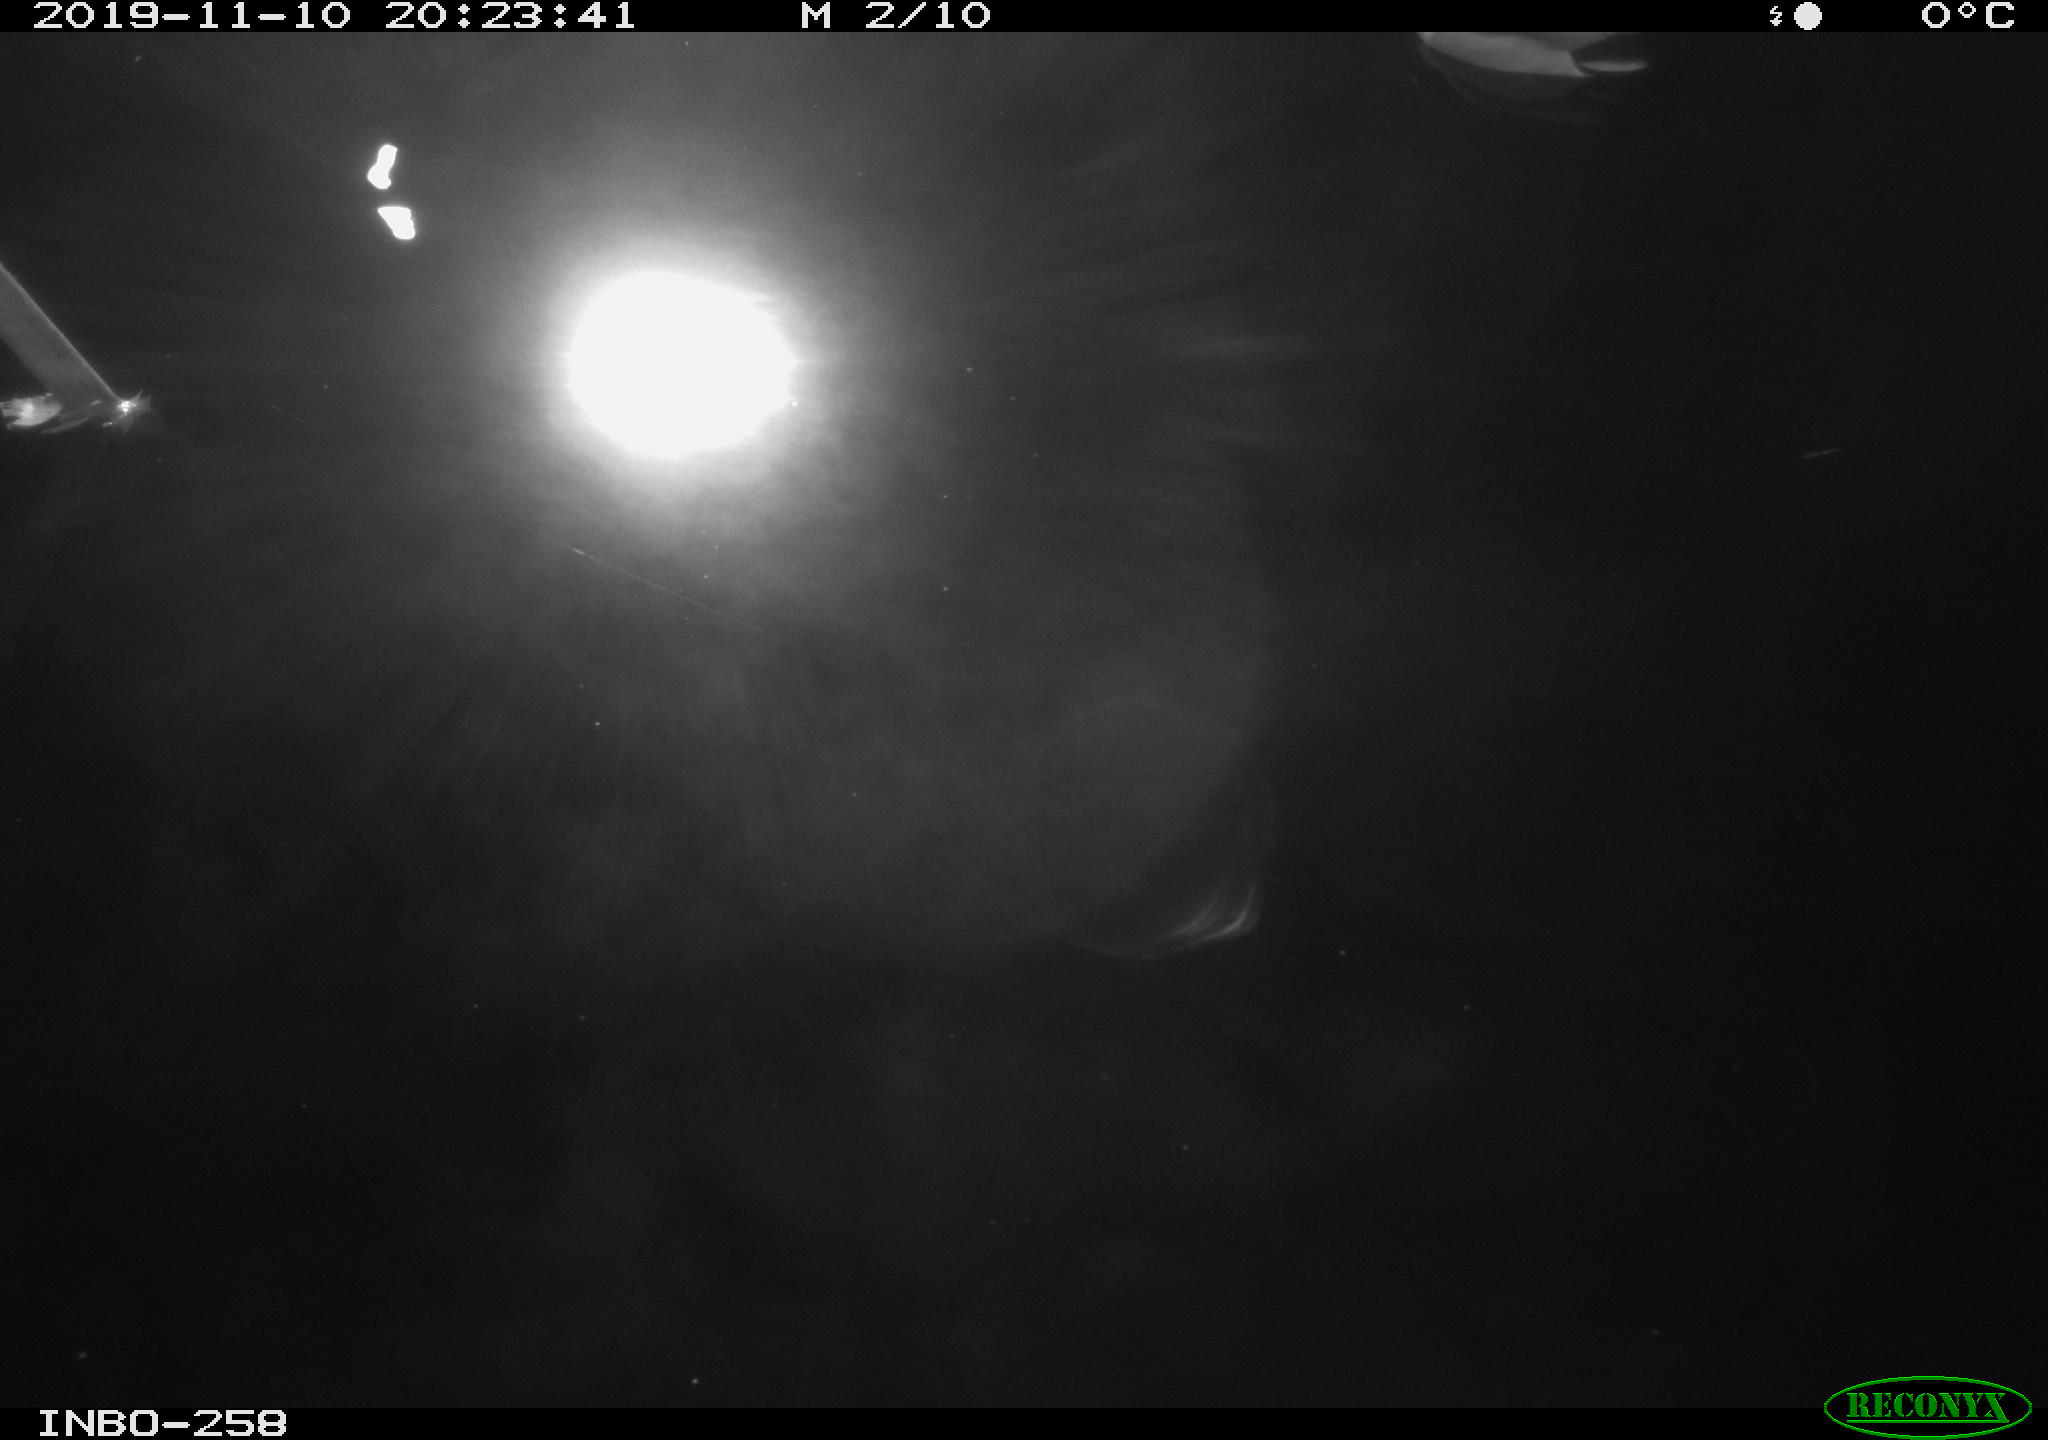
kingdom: Animalia
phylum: Chordata
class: Aves
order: Anseriformes
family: Anatidae
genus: Anas
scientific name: Anas platyrhynchos
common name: Mallard
